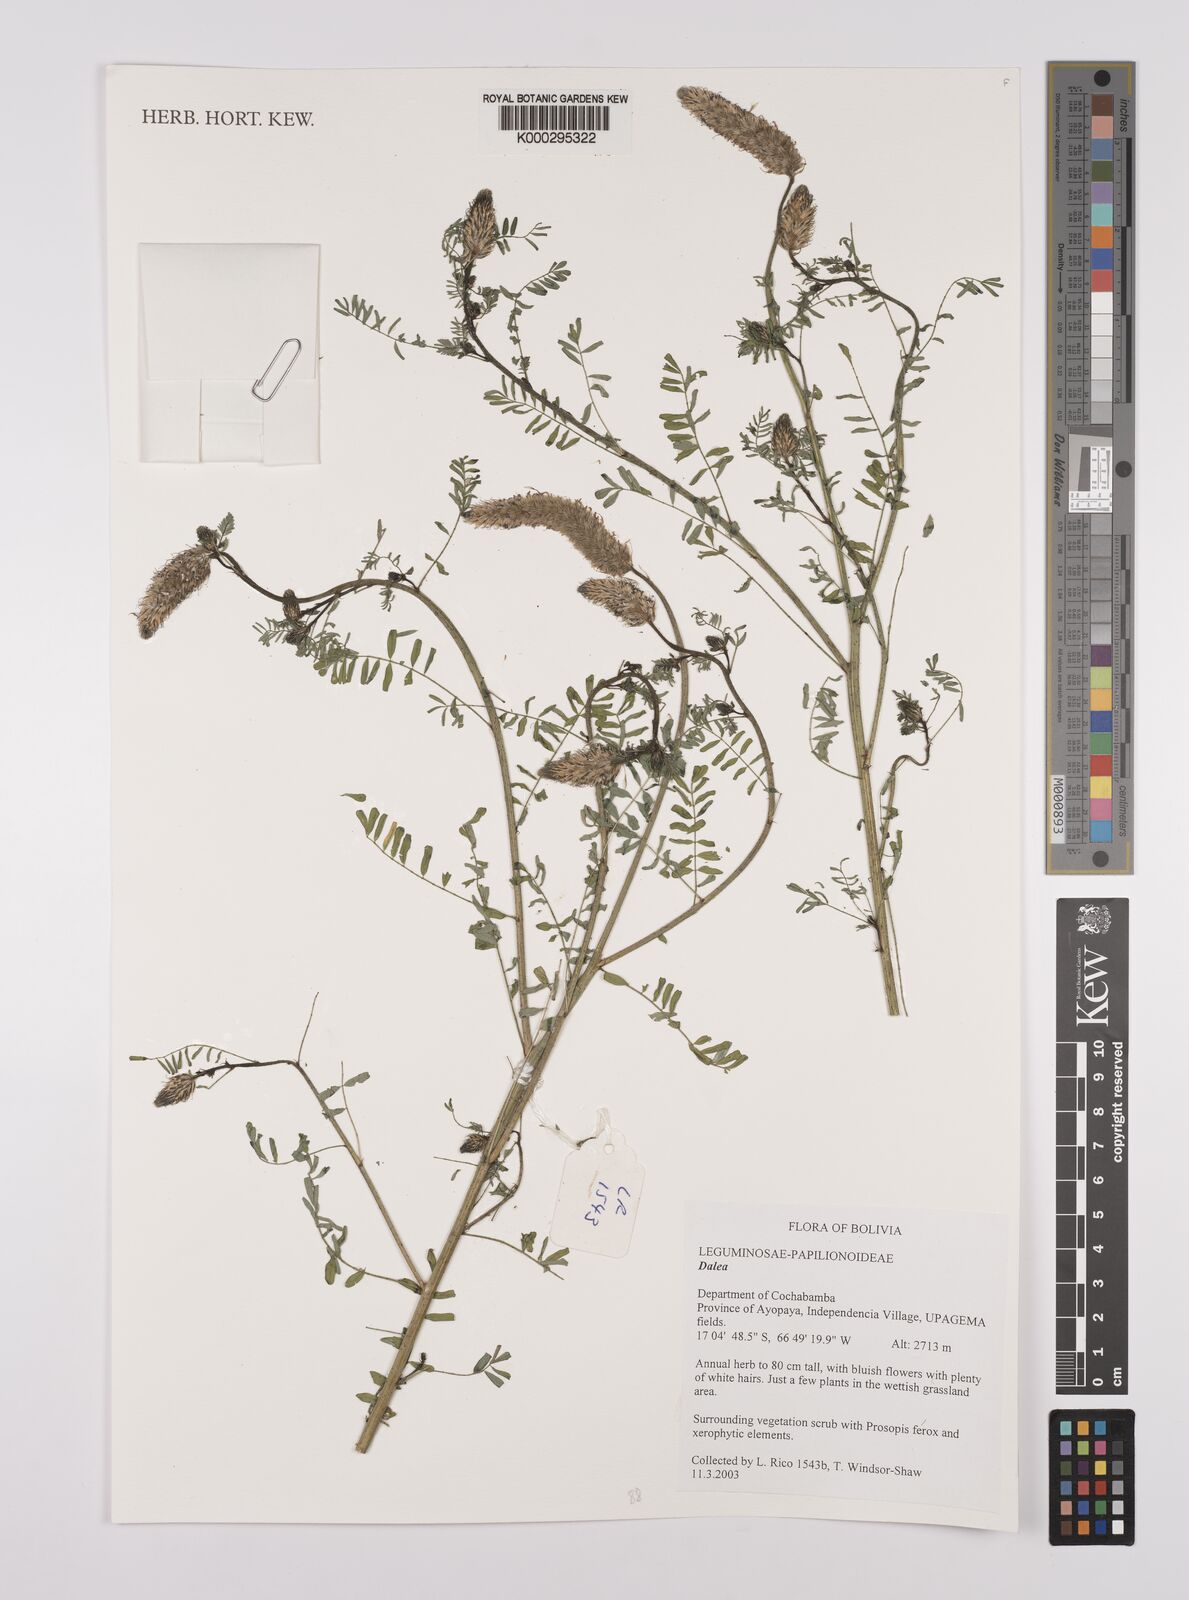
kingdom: Plantae
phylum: Tracheophyta
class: Magnoliopsida
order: Fabales
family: Fabaceae
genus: Dalea
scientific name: Dalea
